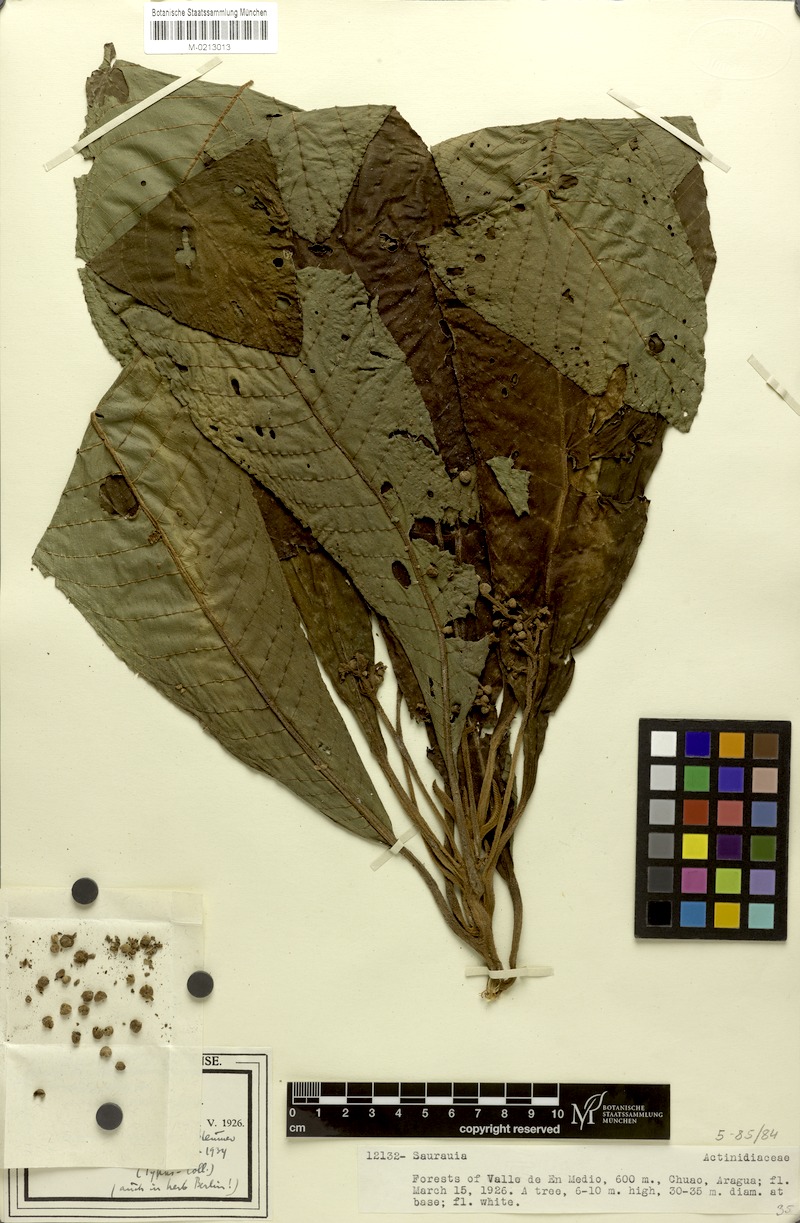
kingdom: Plantae
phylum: Tracheophyta
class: Magnoliopsida
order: Ericales
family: Actinidiaceae
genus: Saurauia
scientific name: Saurauia excelsa
